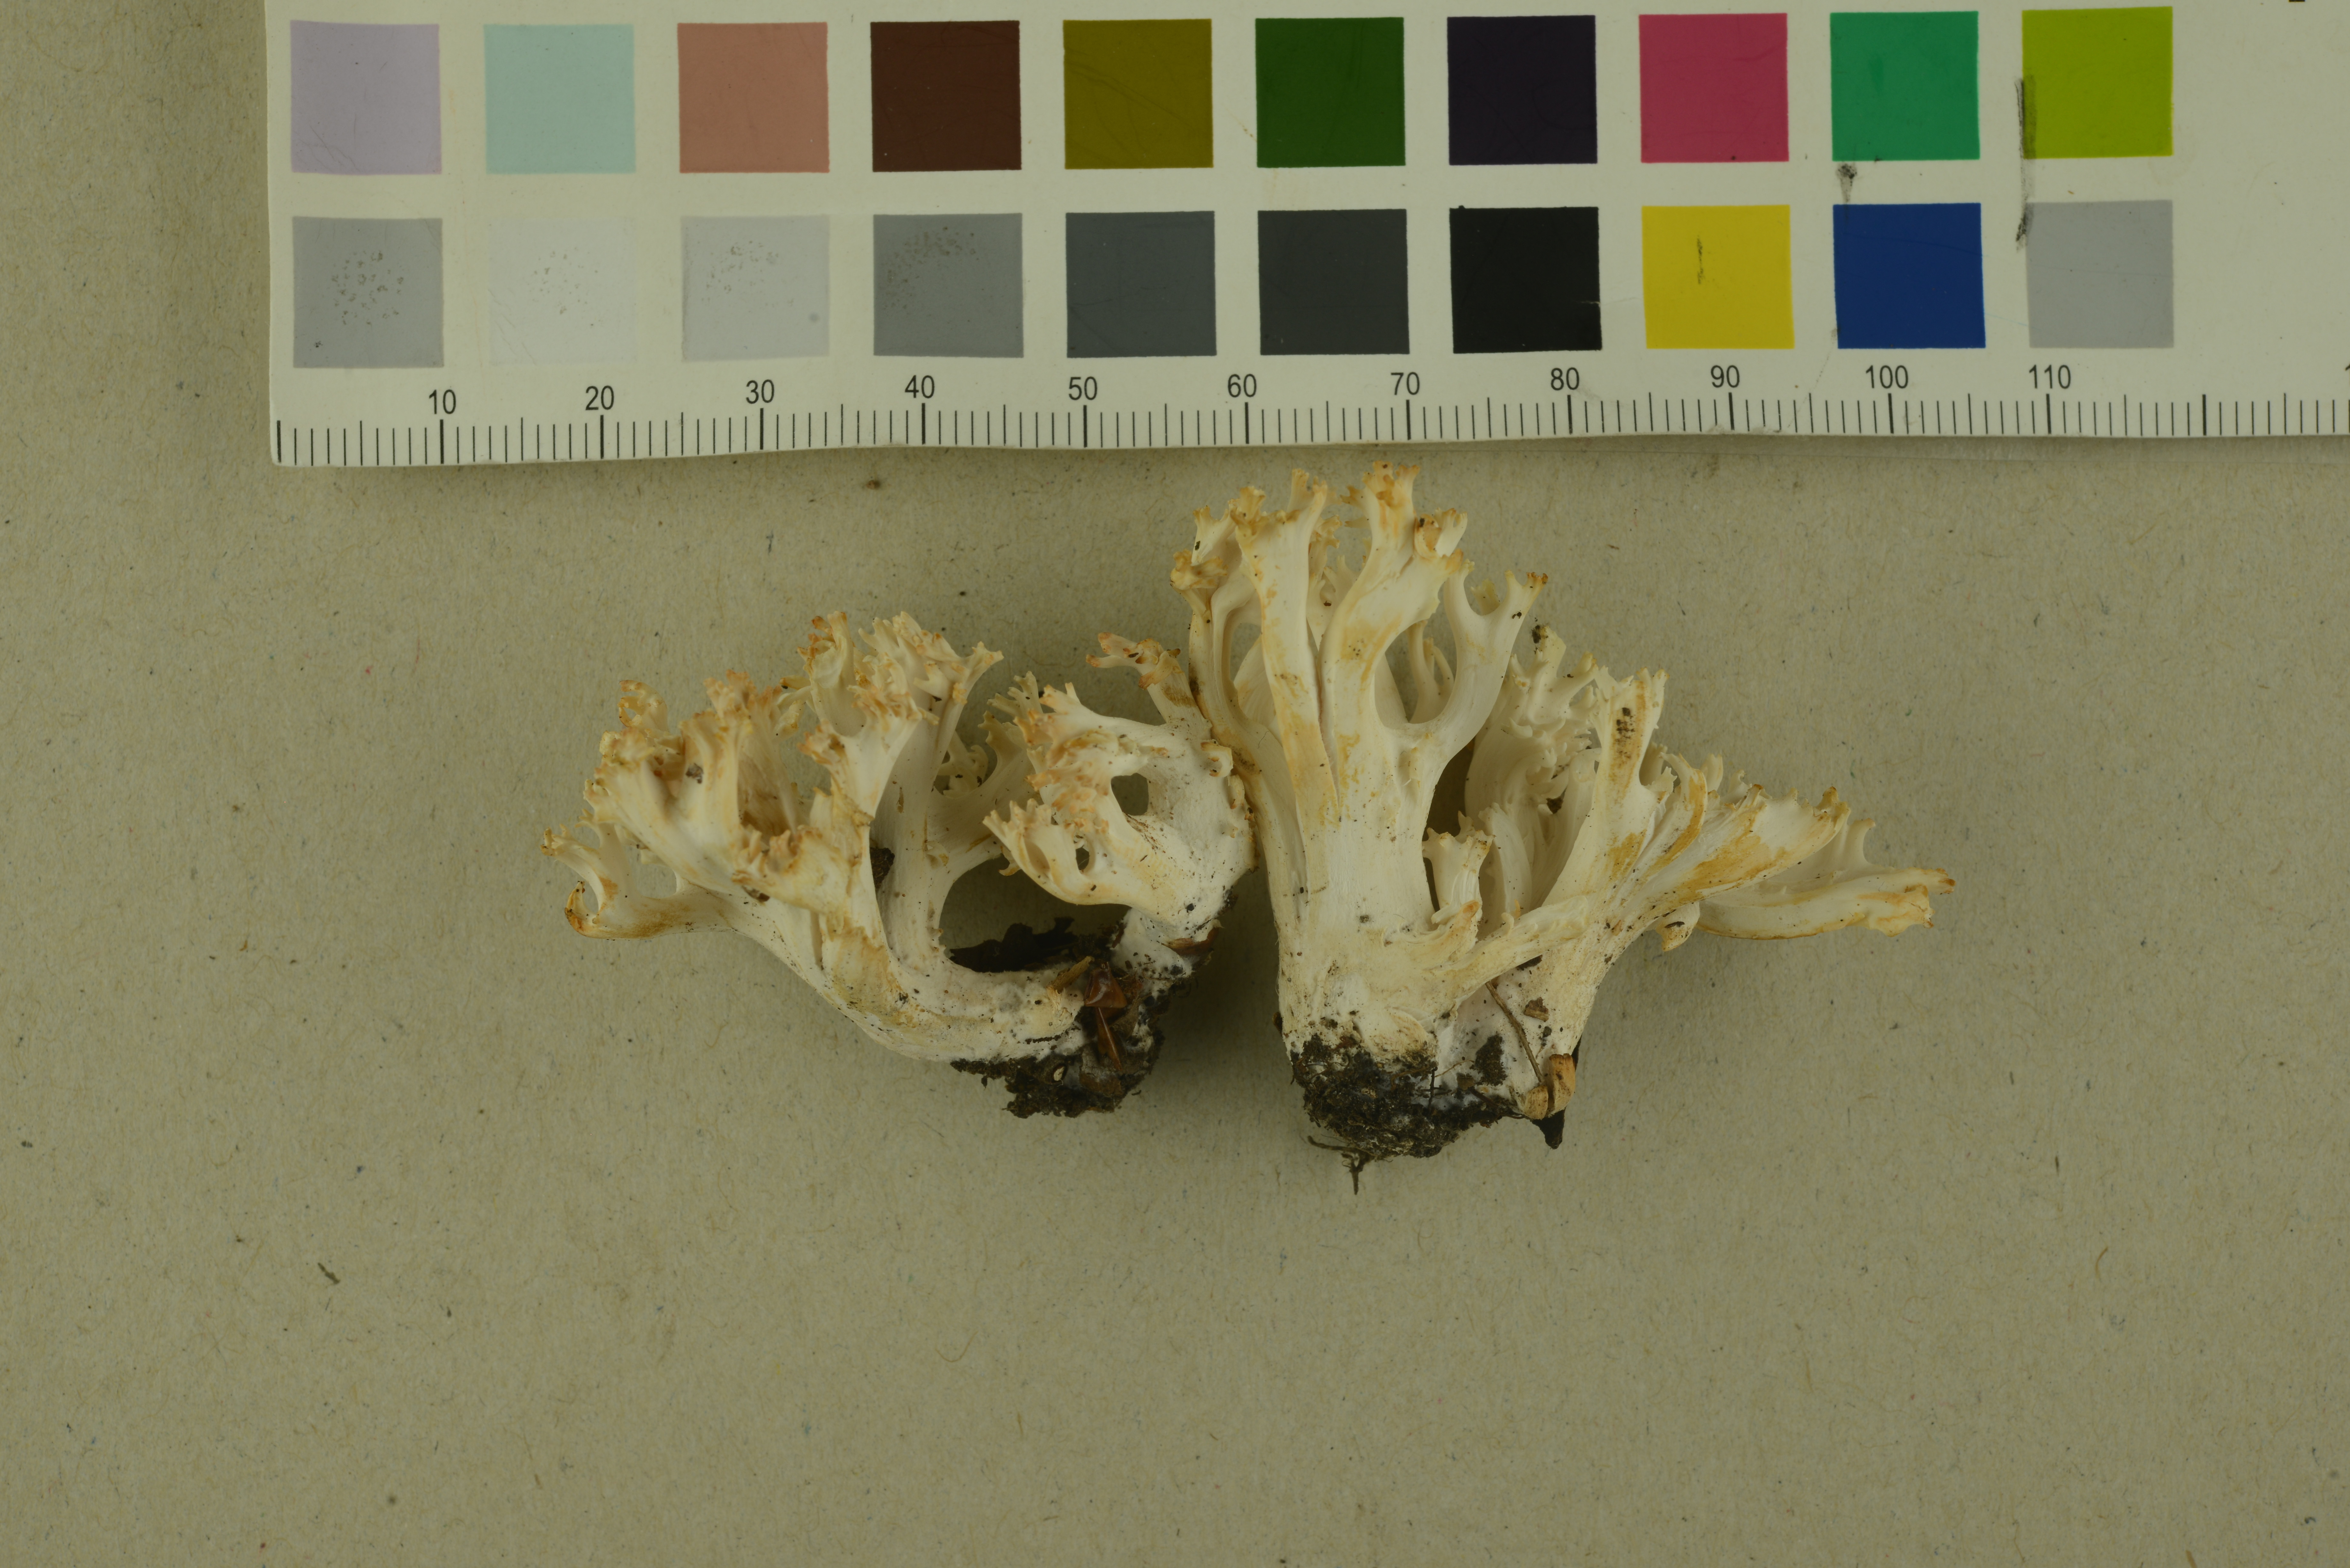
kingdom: Fungi
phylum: Basidiomycota
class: Agaricomycetes
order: Agaricales
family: Clavariaceae
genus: Ramariopsis
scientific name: Ramariopsis robusta
